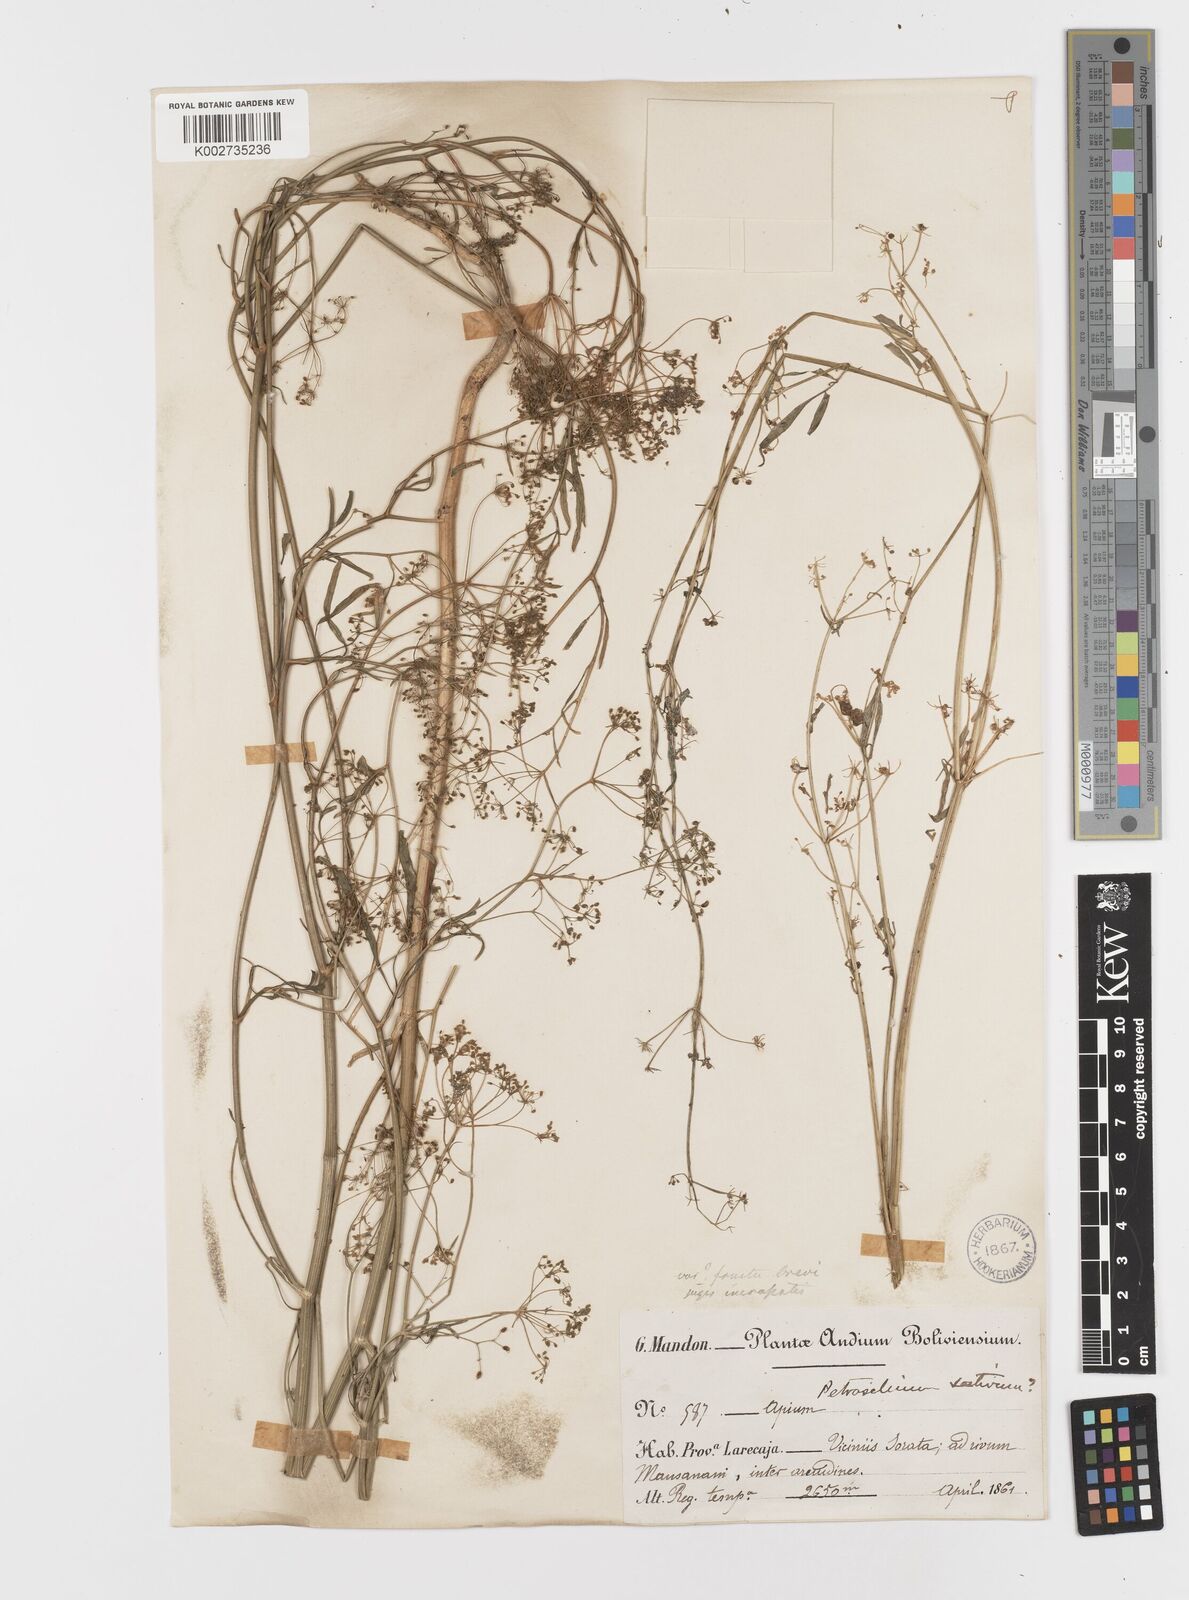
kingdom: Plantae
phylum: Tracheophyta
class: Magnoliopsida
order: Apiales
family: Apiaceae
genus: Petroselinum
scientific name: Petroselinum
